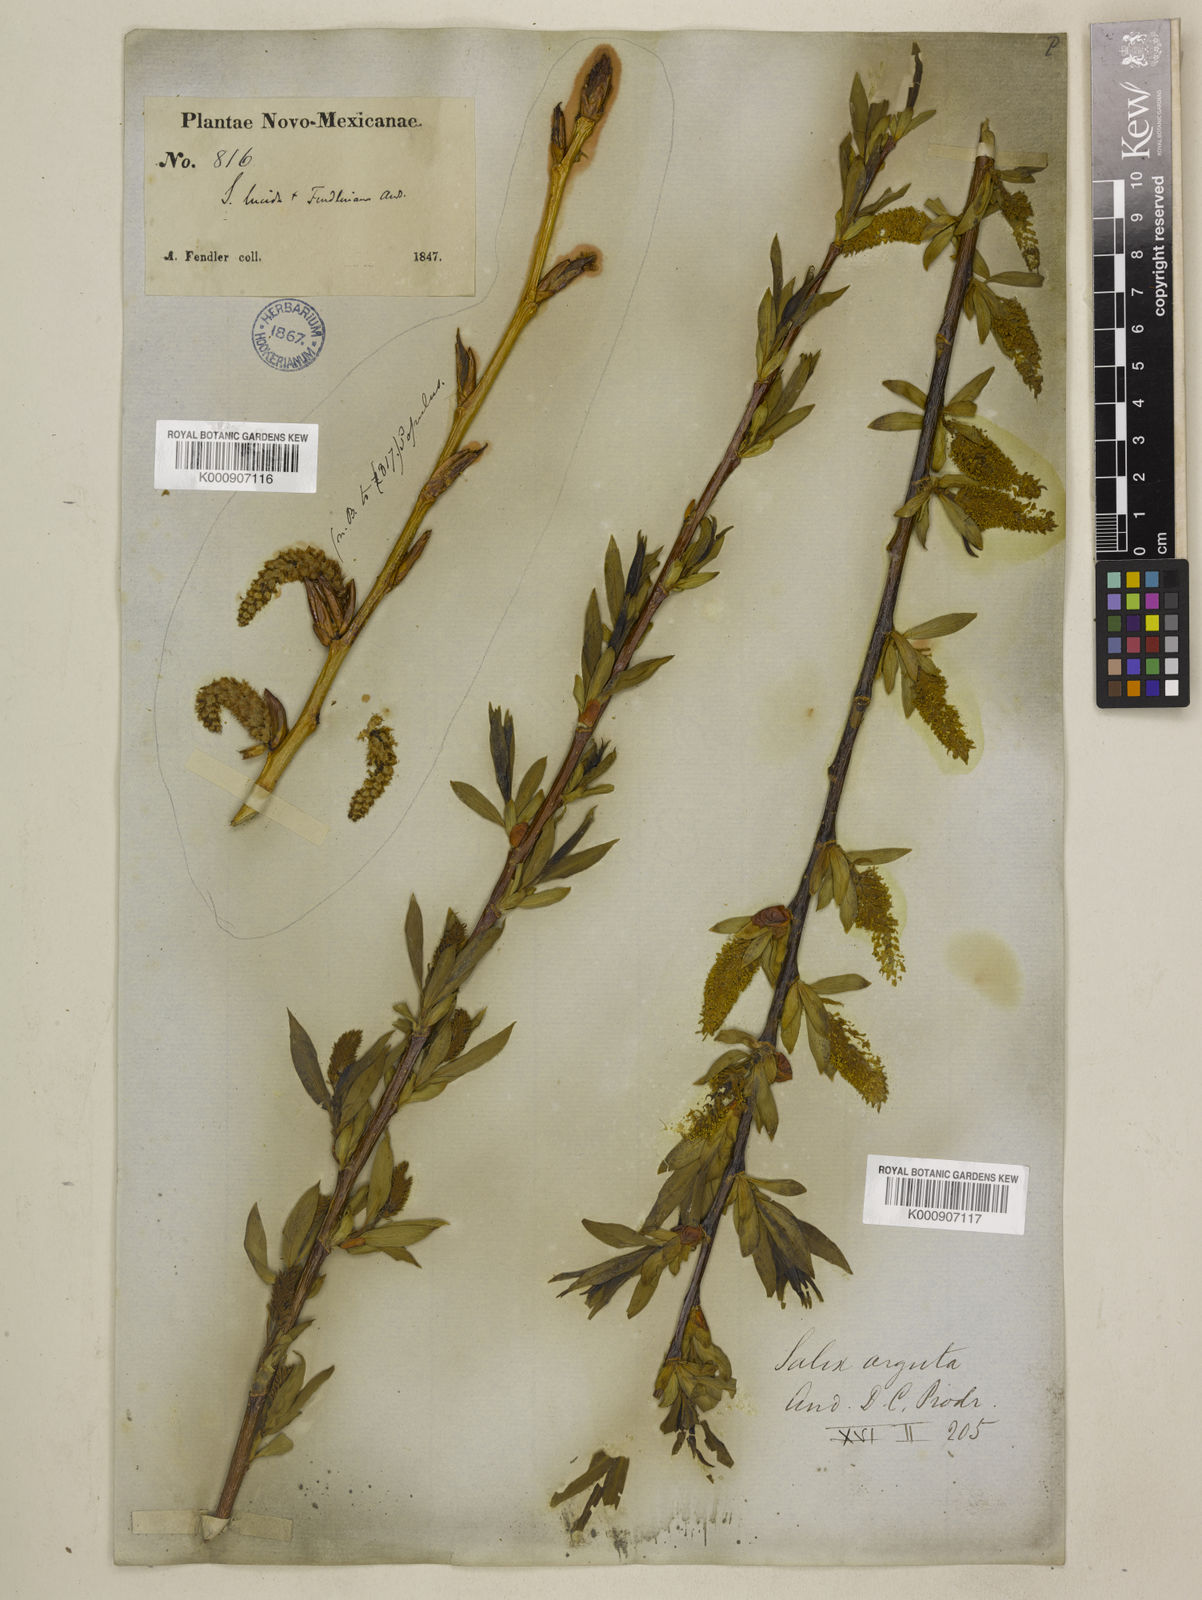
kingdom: Plantae
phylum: Tracheophyta
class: Magnoliopsida
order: Malpighiales
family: Salicaceae
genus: Salix
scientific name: Salix
